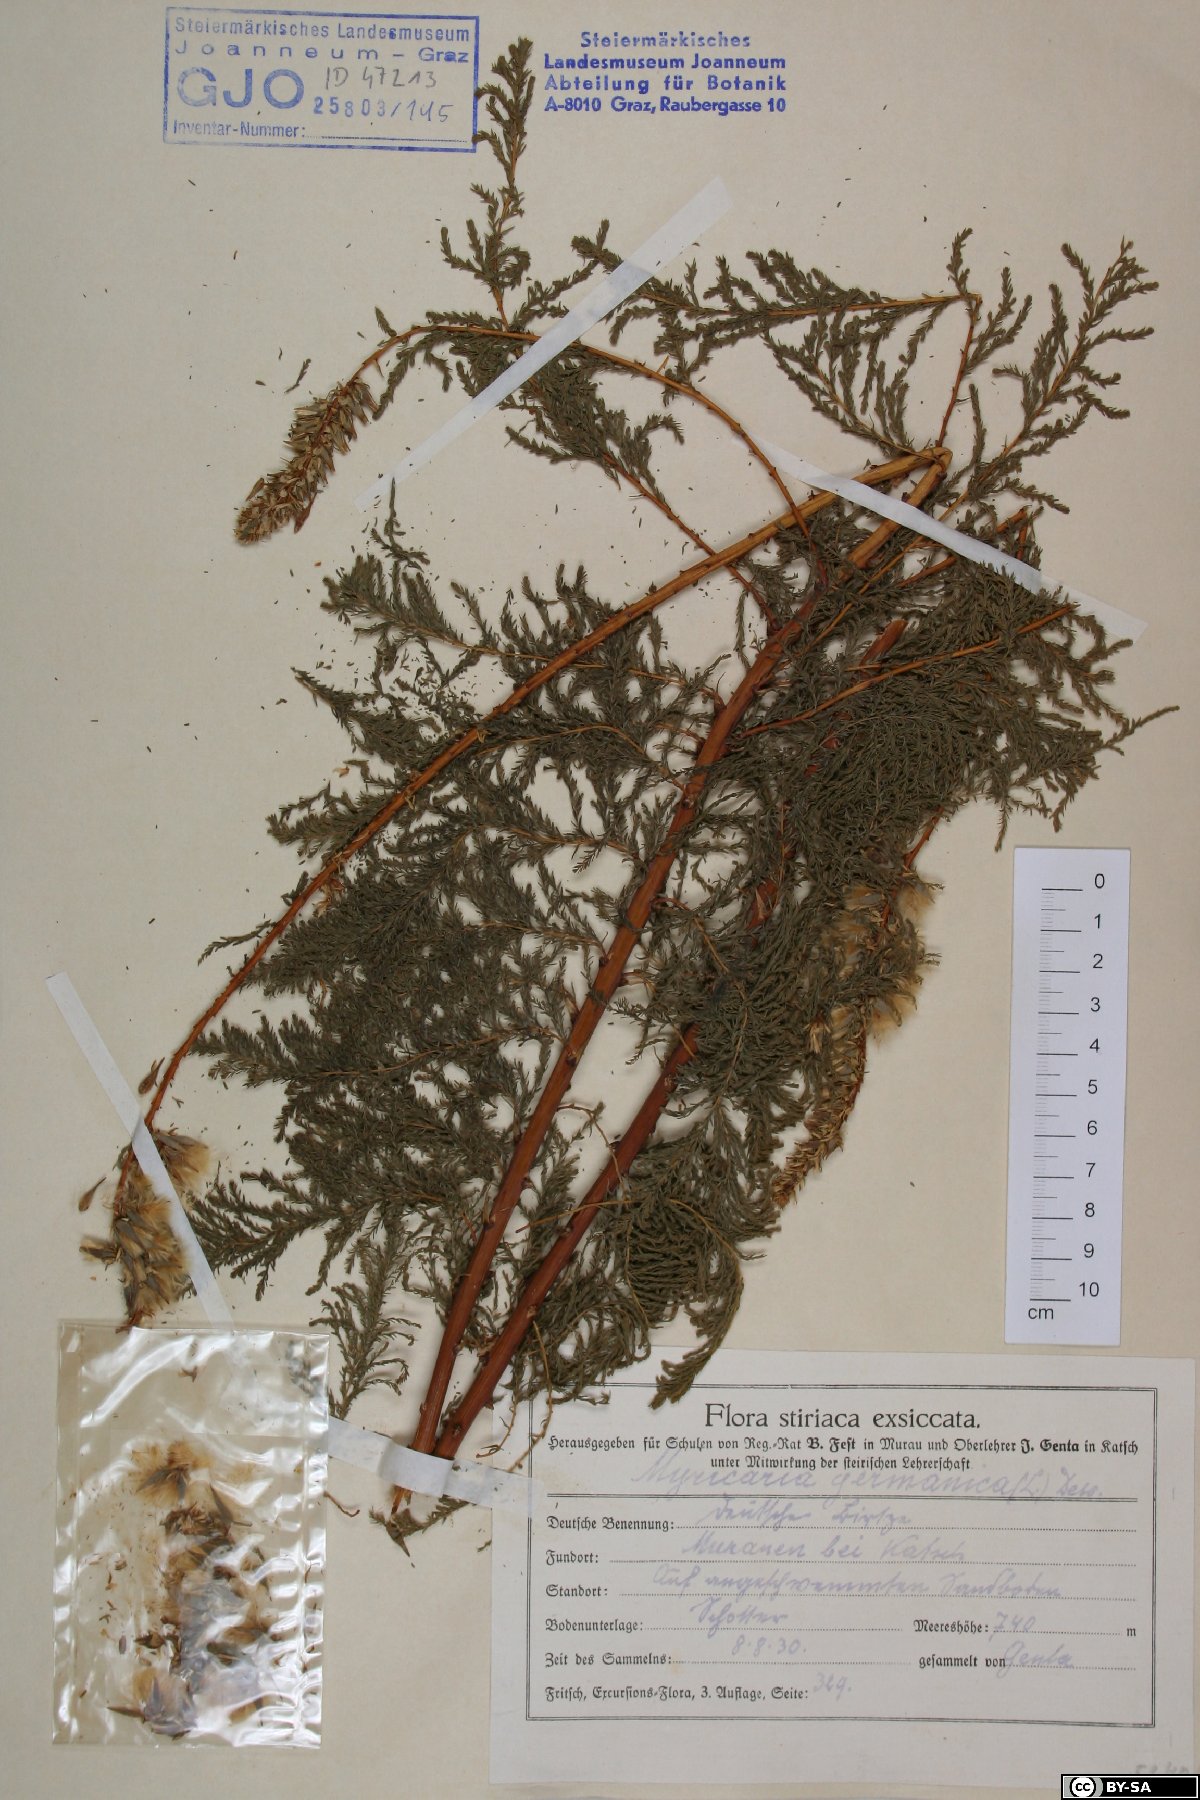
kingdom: Plantae
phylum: Tracheophyta
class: Magnoliopsida
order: Caryophyllales
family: Tamaricaceae
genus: Myricaria
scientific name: Myricaria germanica
